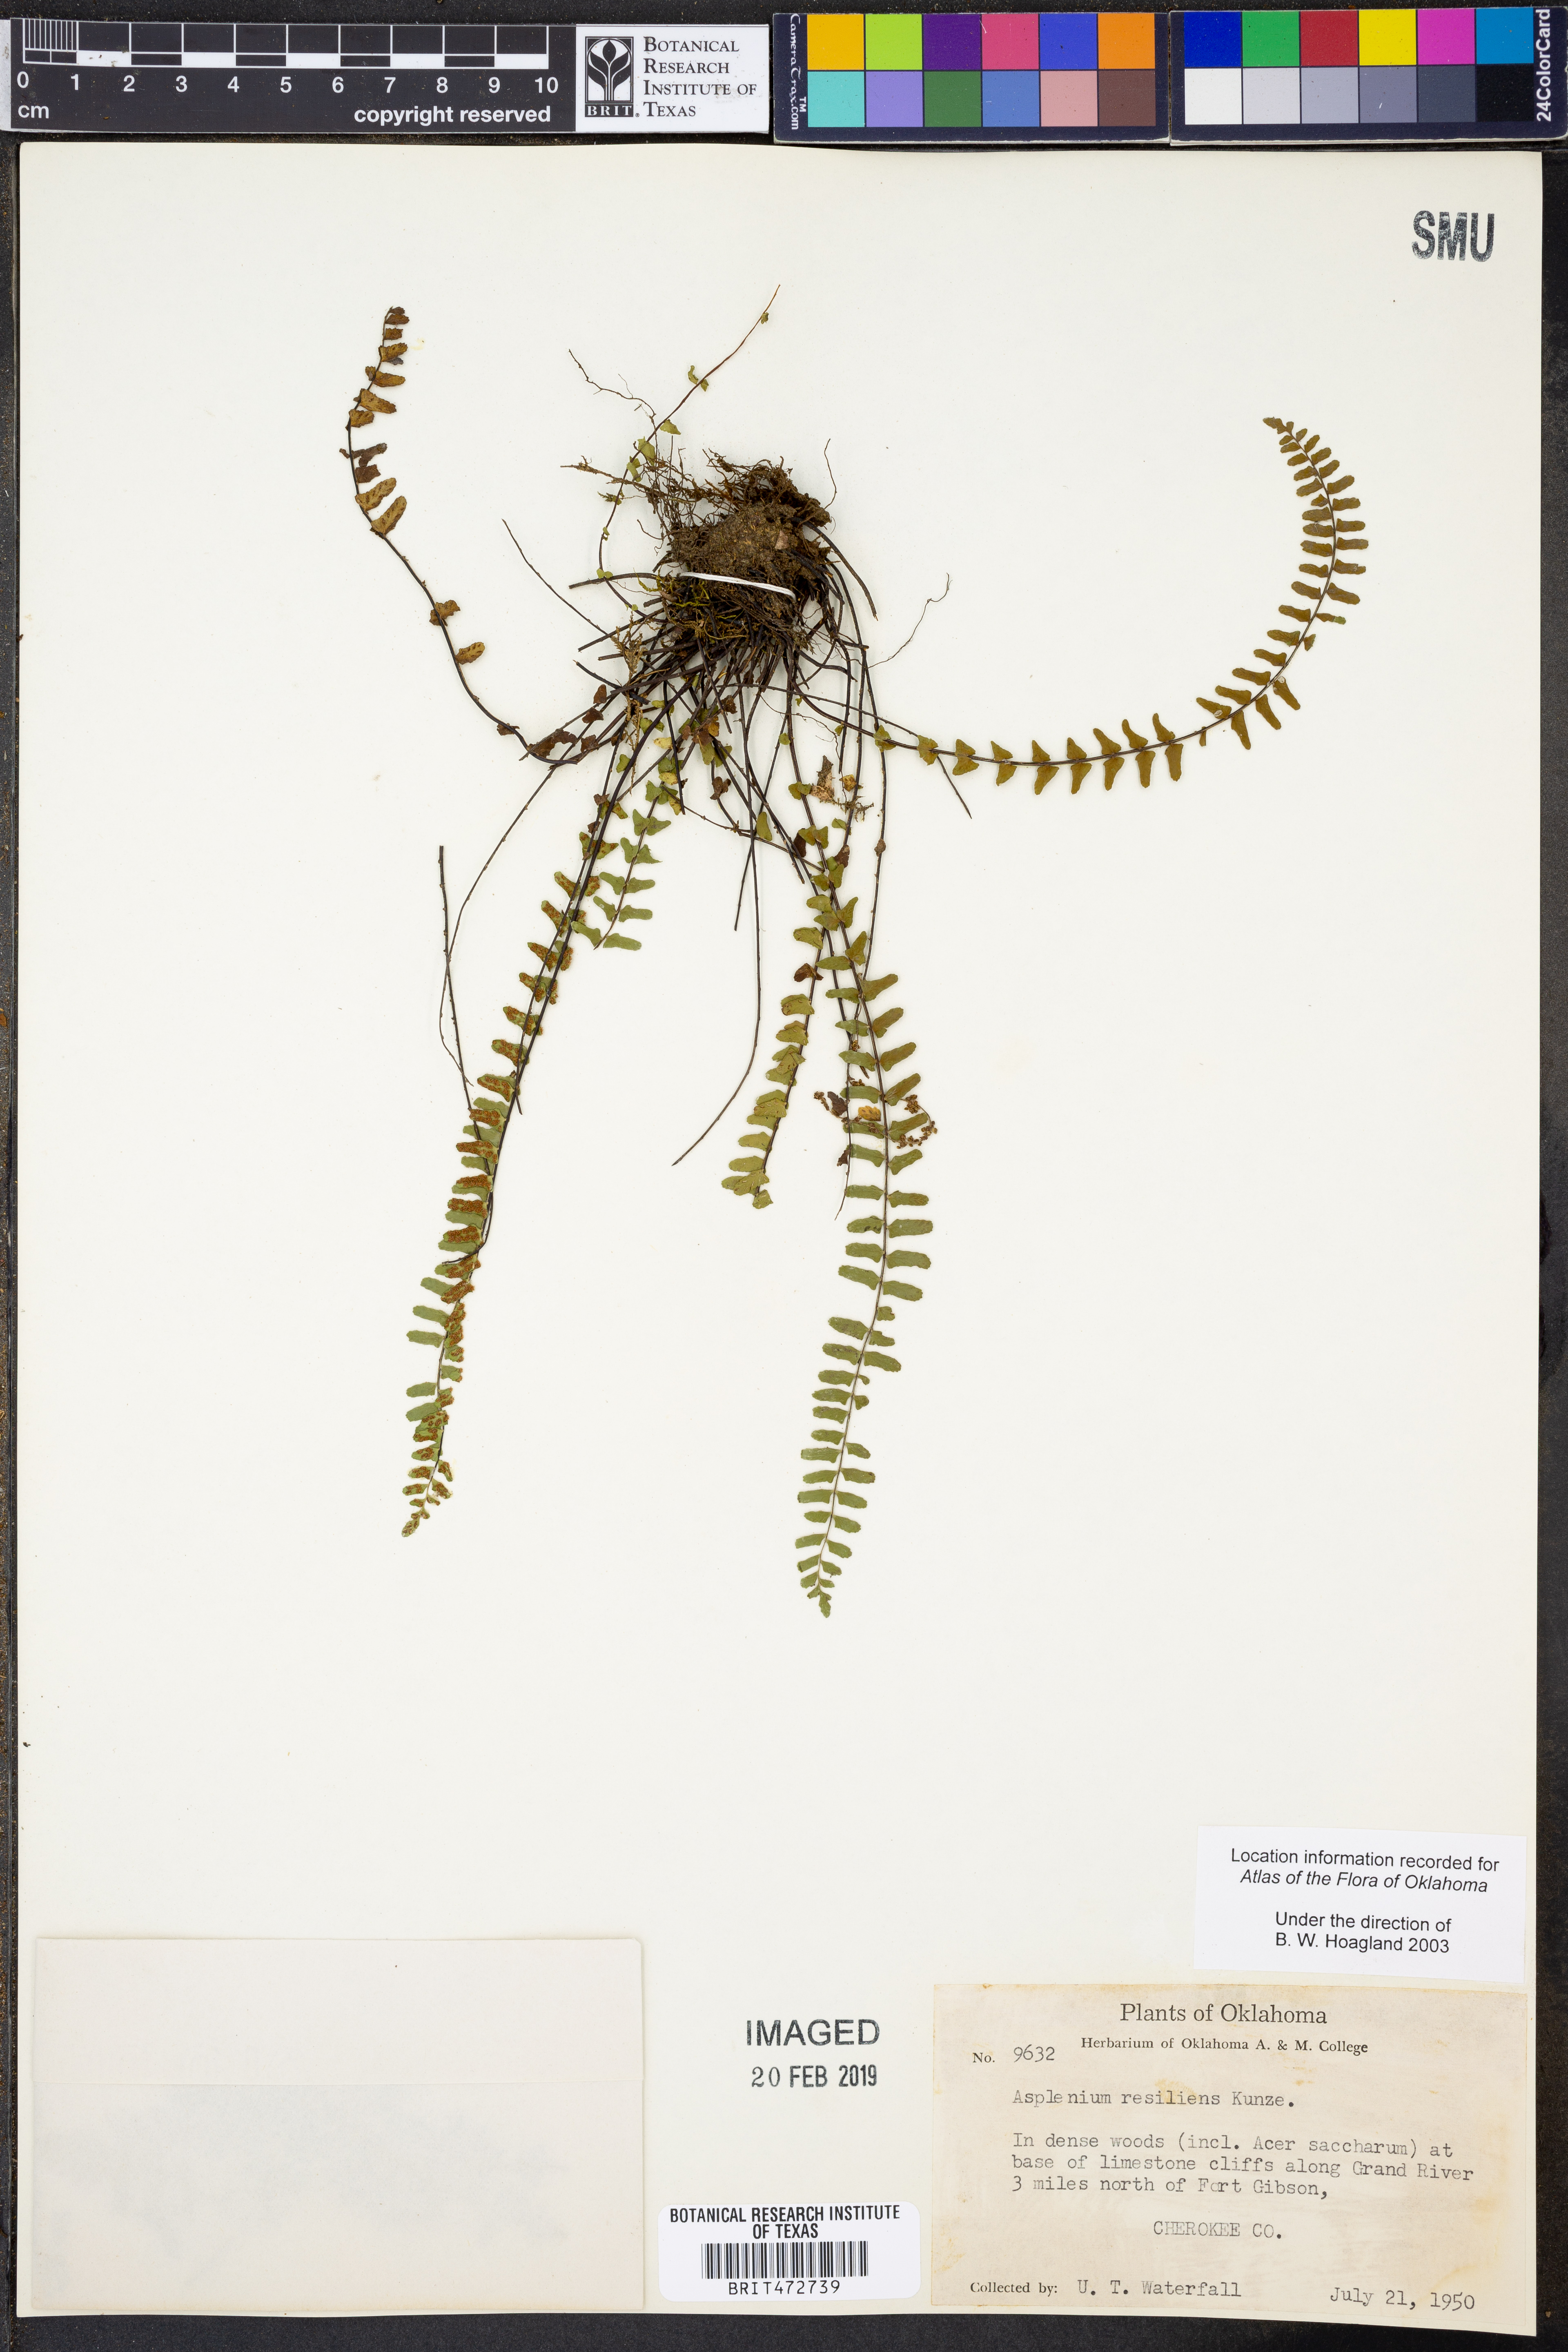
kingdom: Plantae
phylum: Tracheophyta
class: Polypodiopsida
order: Polypodiales
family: Aspleniaceae
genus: Asplenium
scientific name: Asplenium resiliens
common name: Blackstem spleenwort
